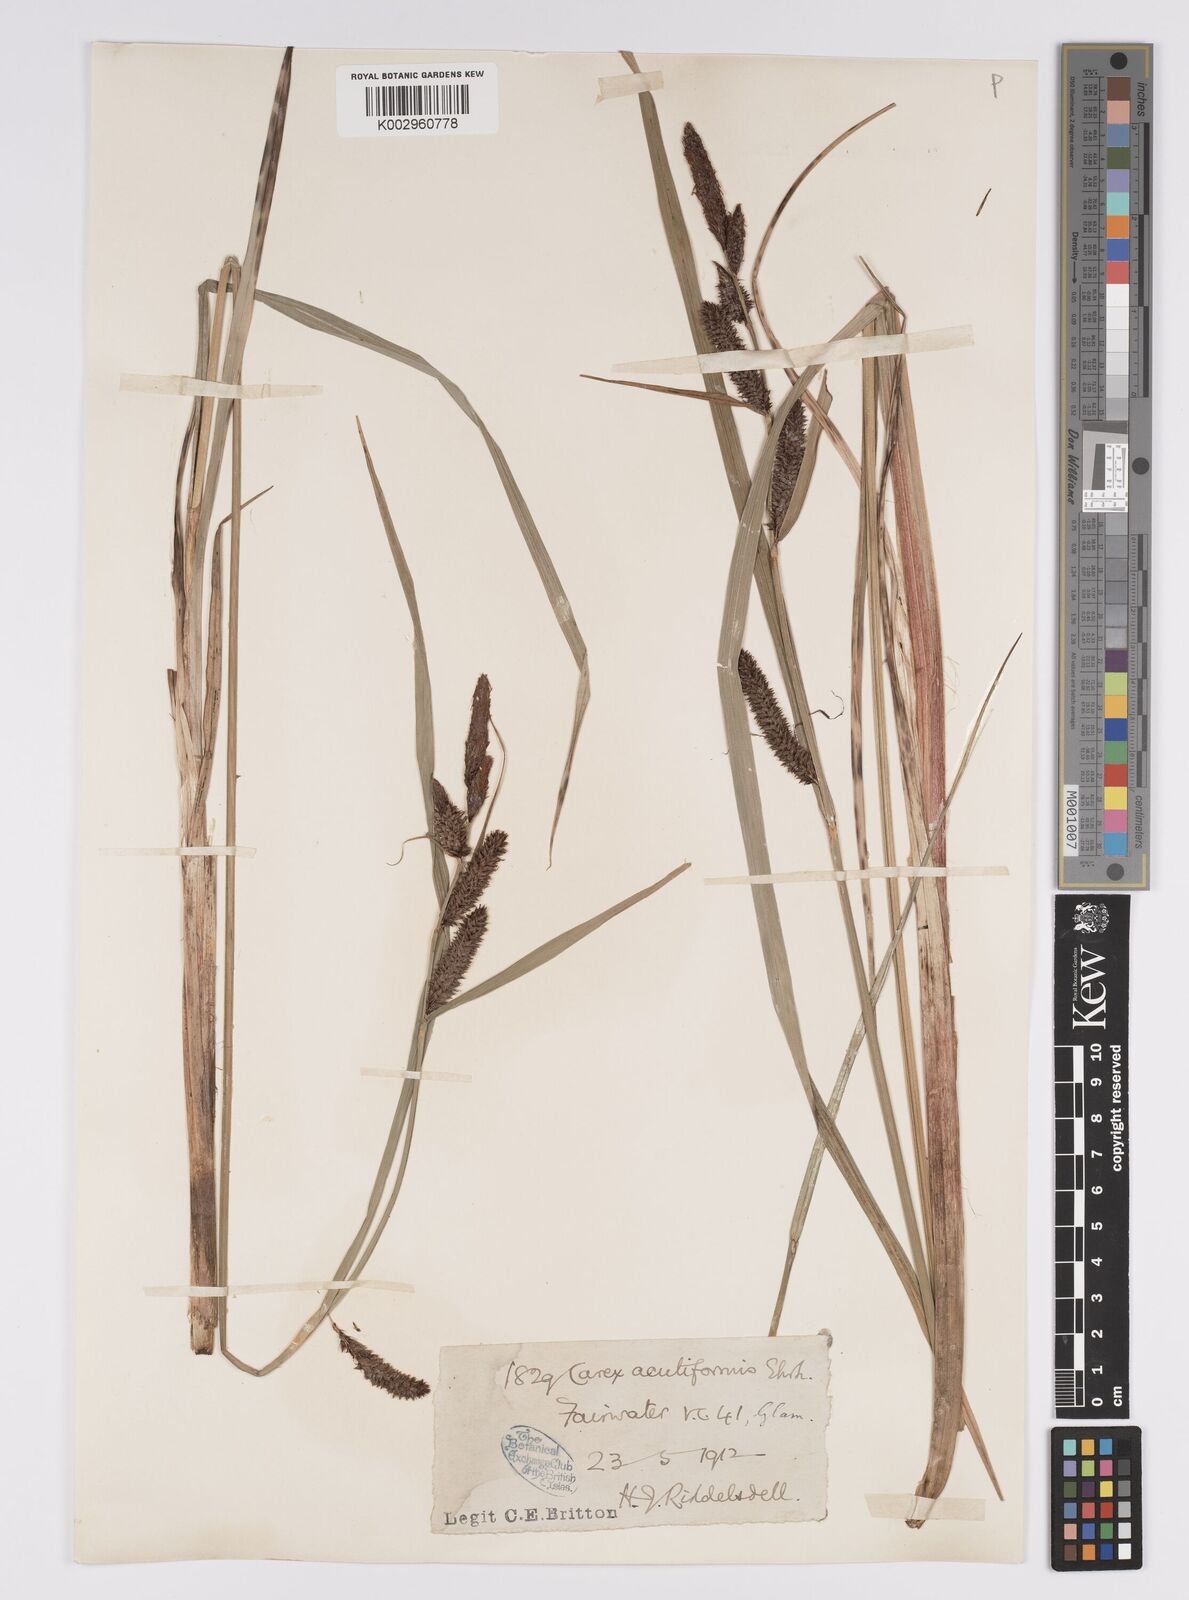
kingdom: Plantae
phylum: Tracheophyta
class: Liliopsida
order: Poales
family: Cyperaceae
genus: Carex
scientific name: Carex acutiformis
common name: Lesser pond-sedge
